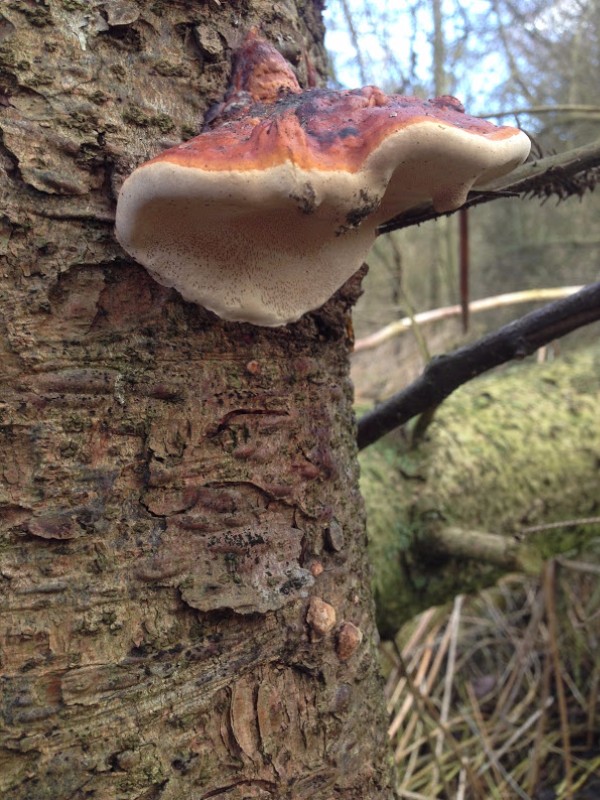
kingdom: Fungi
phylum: Basidiomycota
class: Agaricomycetes
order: Polyporales
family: Fomitopsidaceae
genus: Fomitopsis
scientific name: Fomitopsis pinicola
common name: randbæltet hovporesvamp
